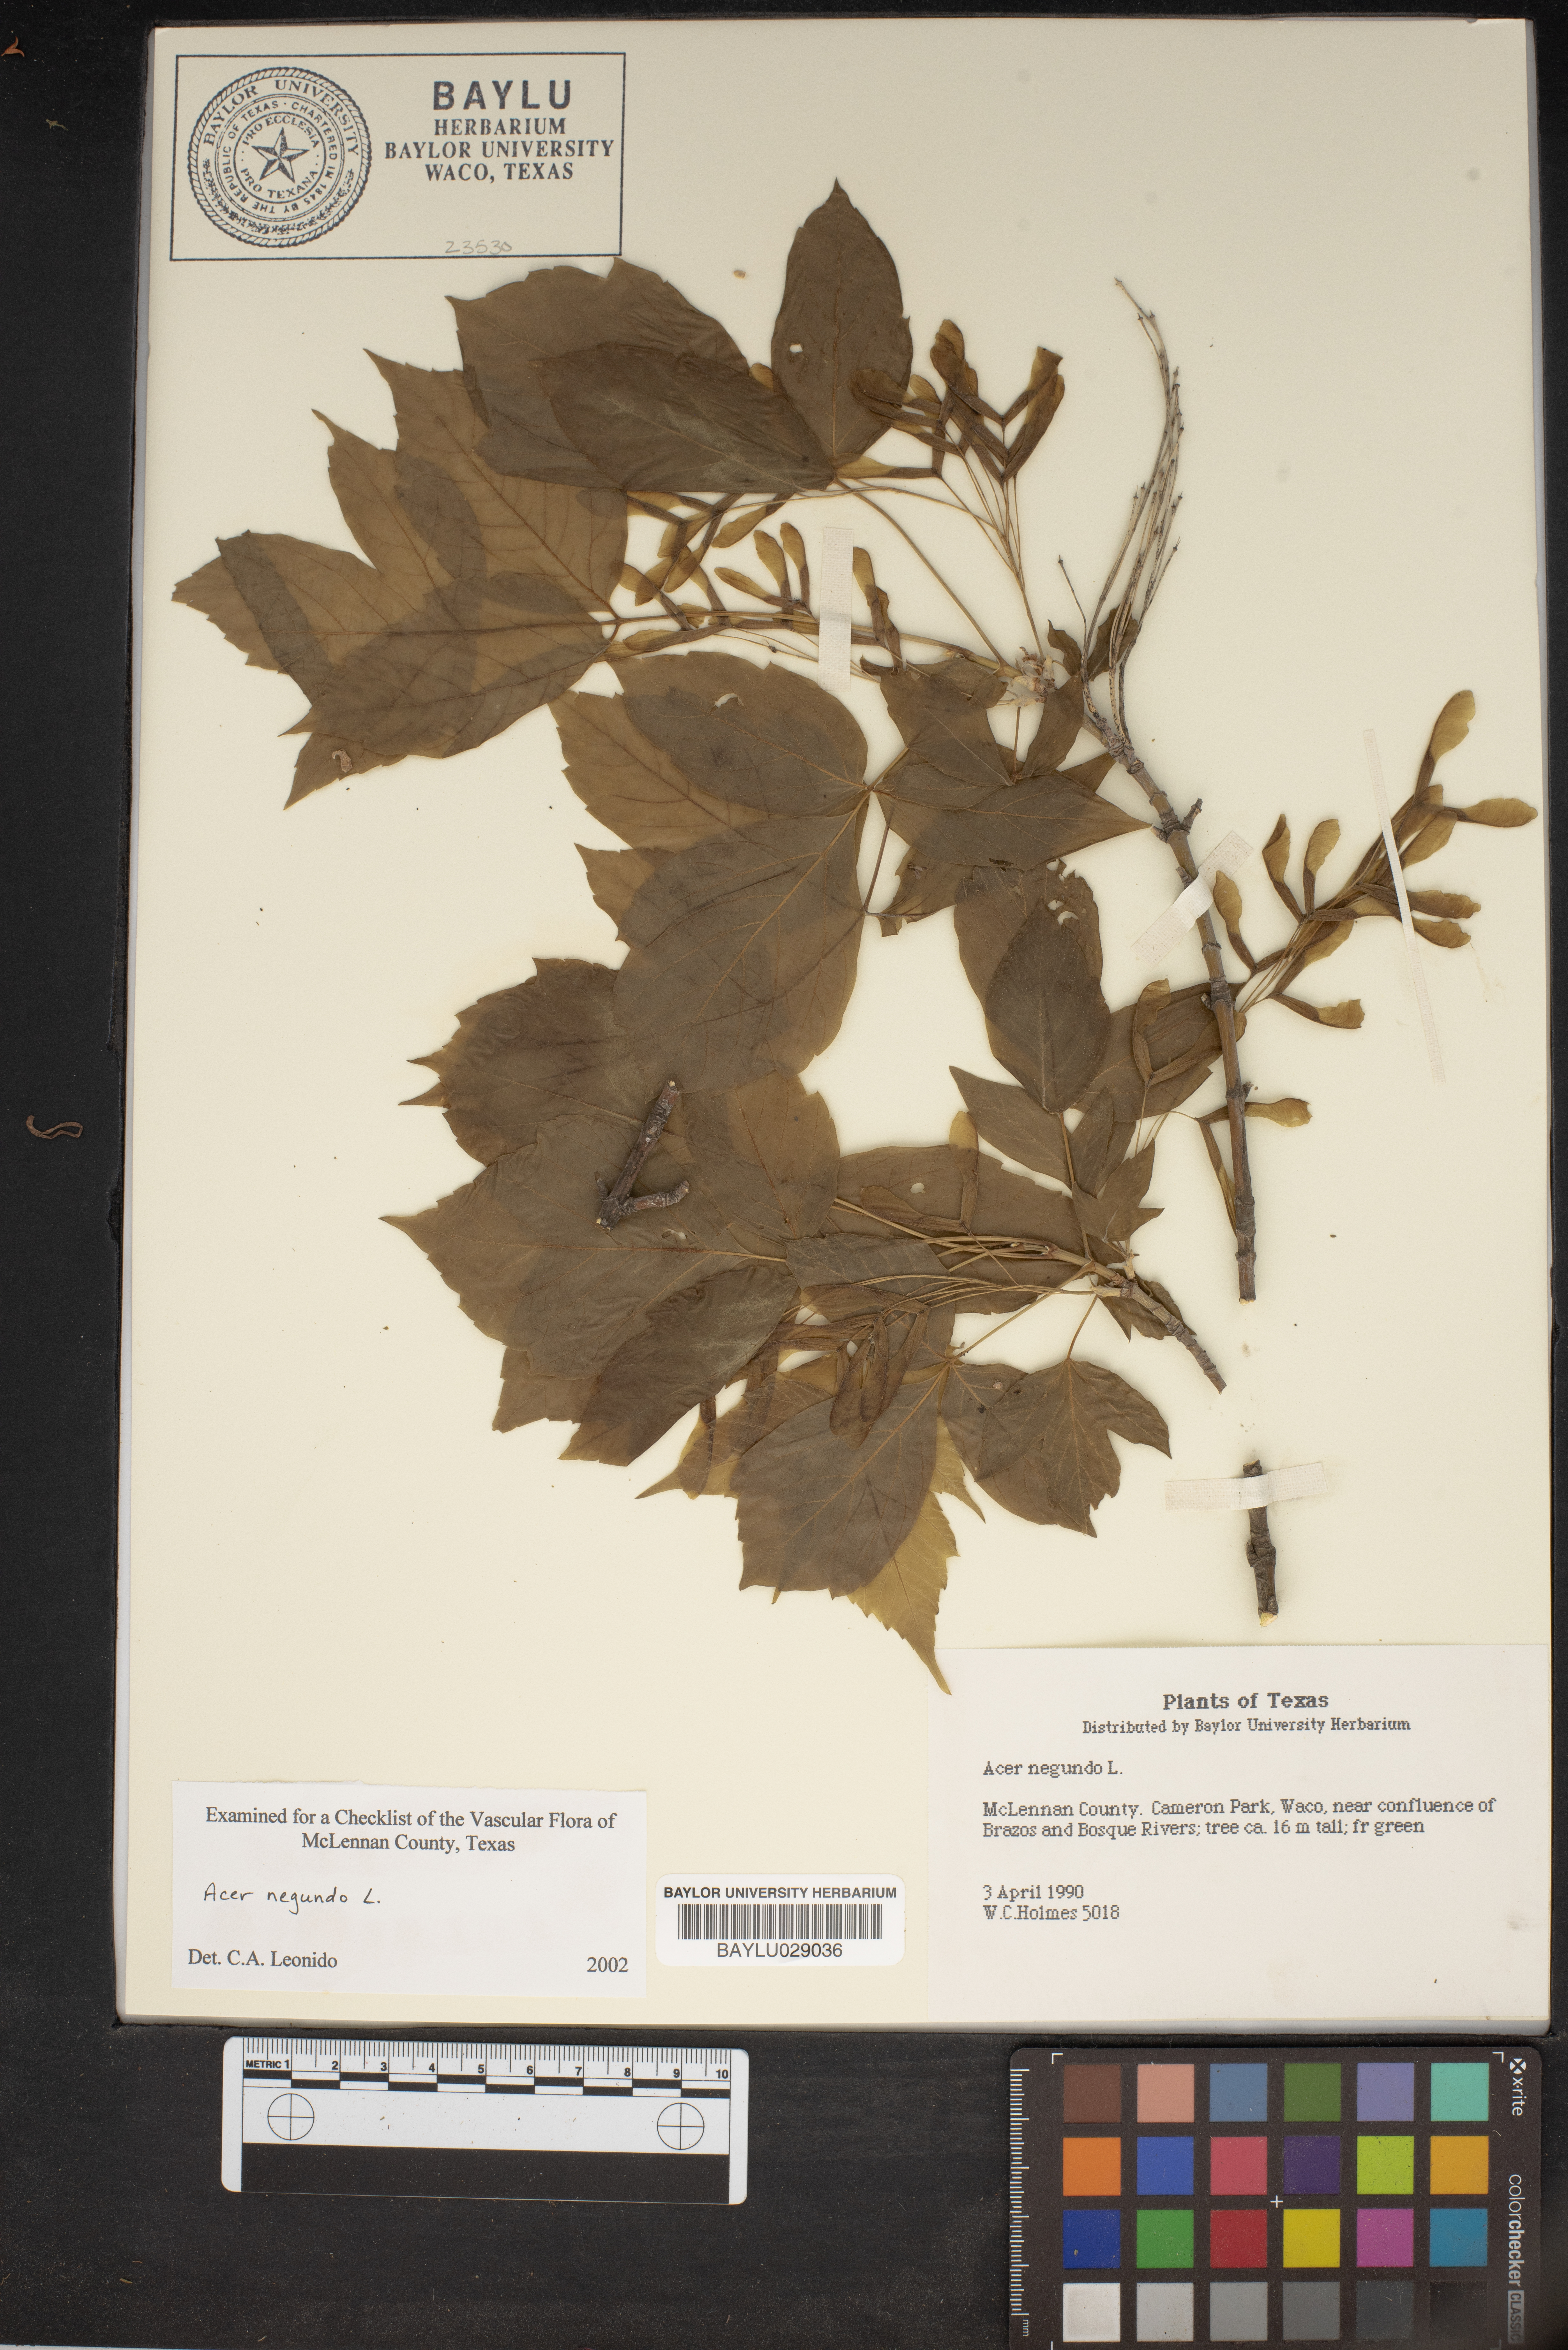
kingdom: Plantae
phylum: Tracheophyta
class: Magnoliopsida
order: Sapindales
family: Sapindaceae
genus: Acer
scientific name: Acer negundo
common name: Ashleaf maple
